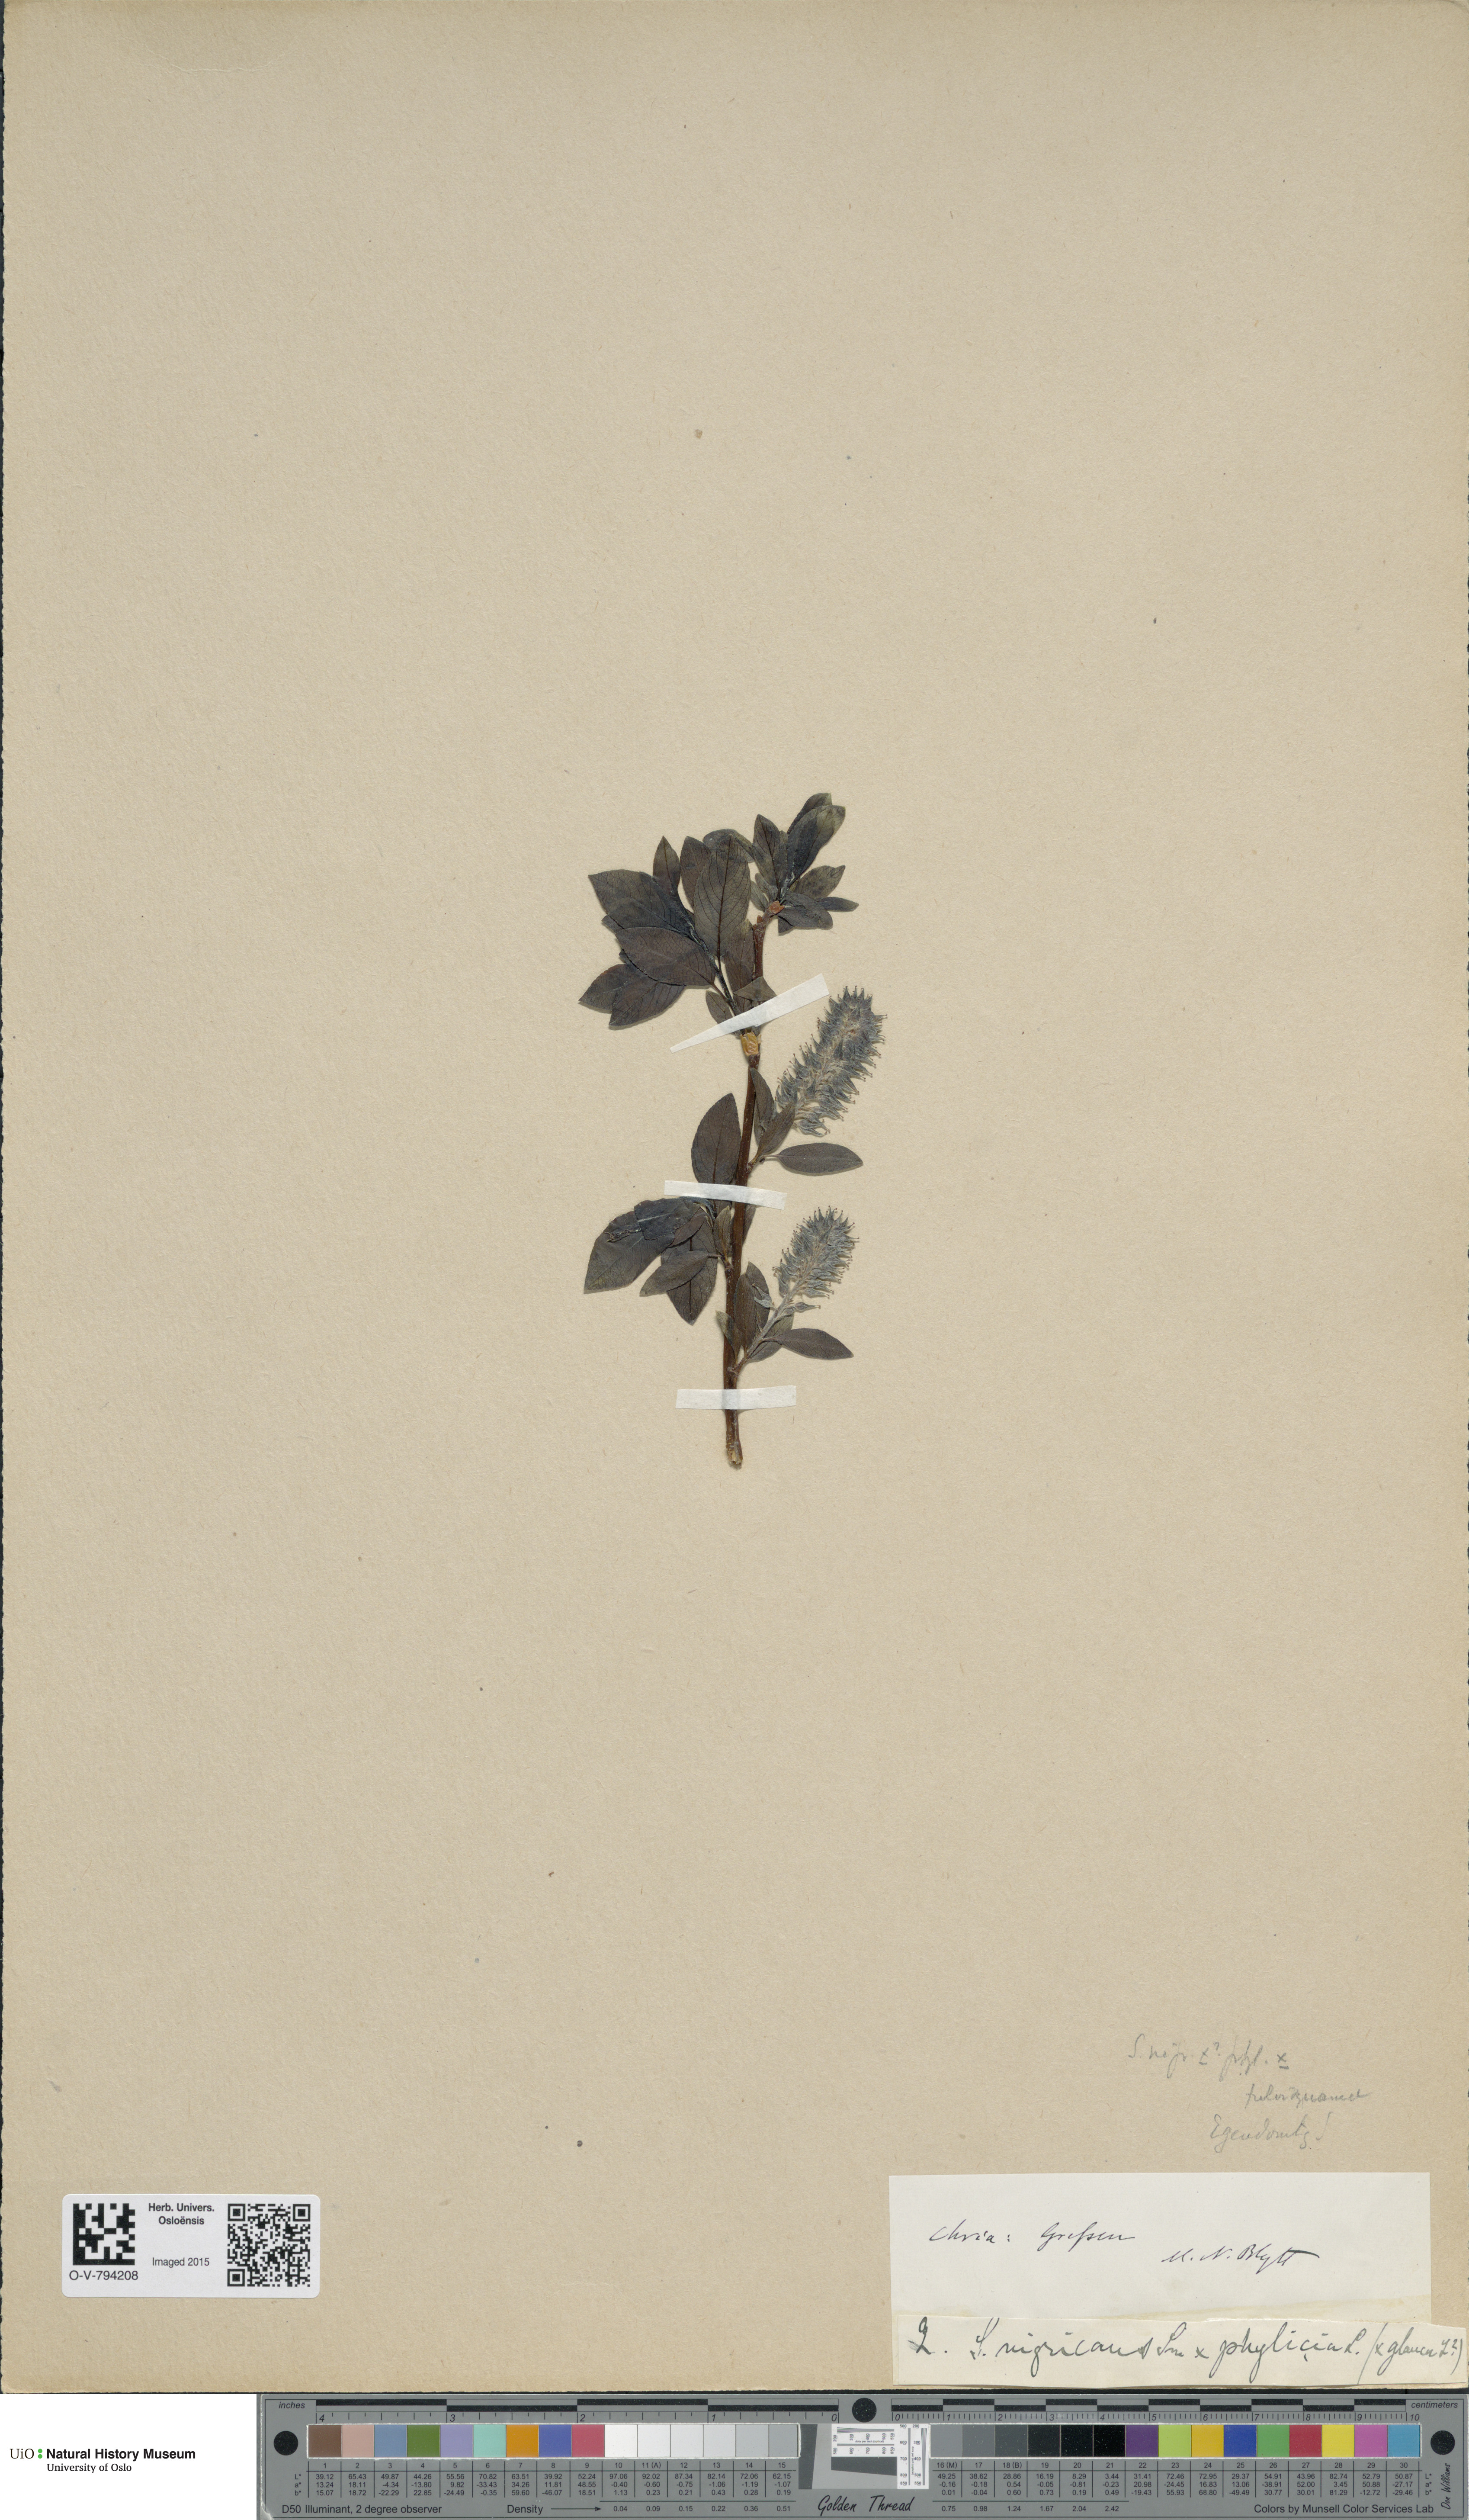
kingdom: Plantae
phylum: Tracheophyta
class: Magnoliopsida
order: Malpighiales
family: Salicaceae
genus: Salix
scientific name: Salix
